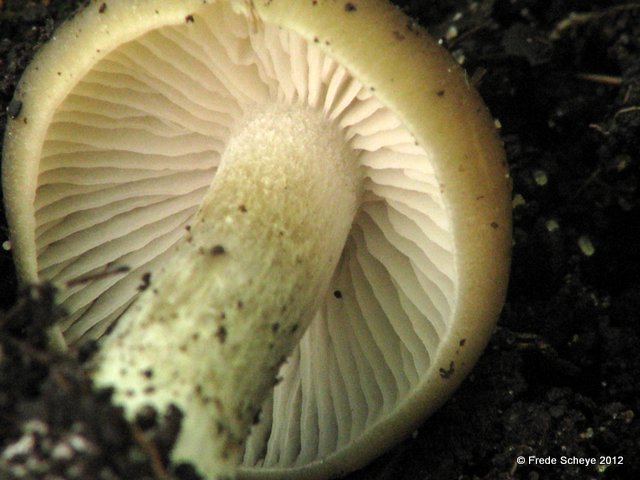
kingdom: Fungi
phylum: Basidiomycota
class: Agaricomycetes
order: Agaricales
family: Entolomataceae
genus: Entoloma
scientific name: Entoloma aprile
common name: maj-rødblad
